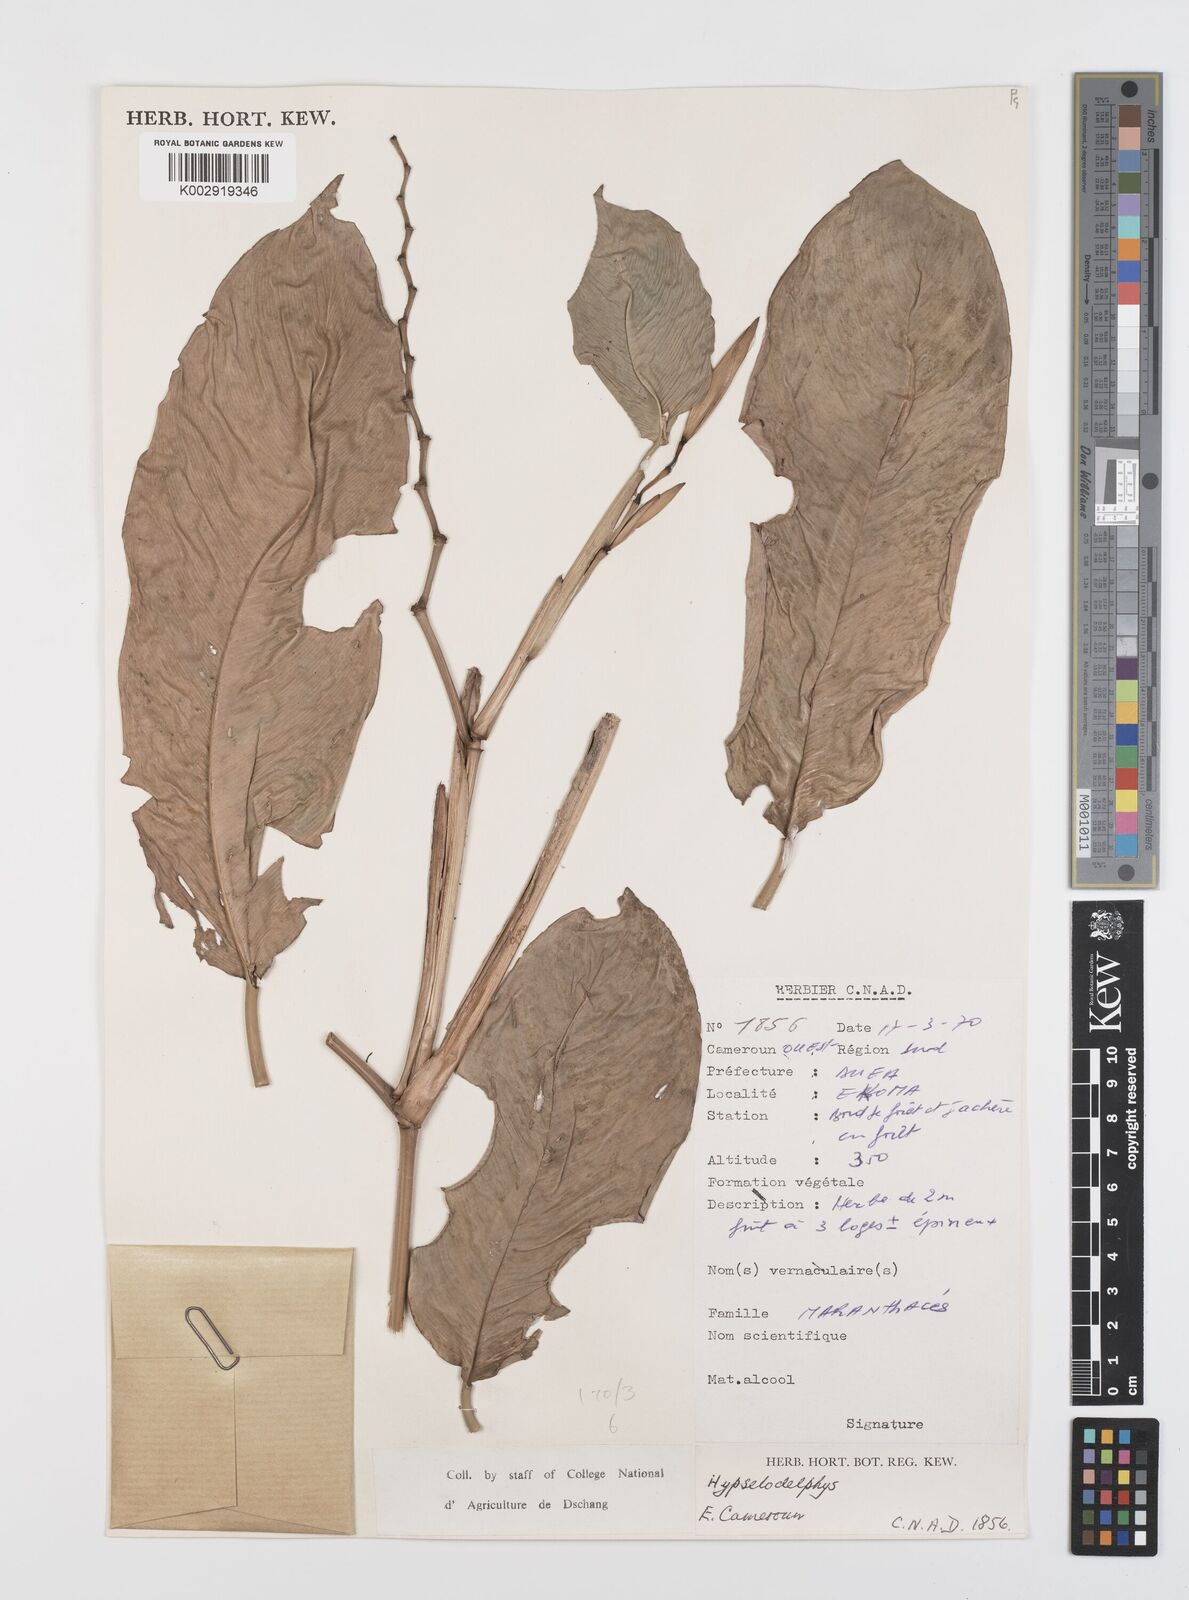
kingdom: Plantae
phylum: Tracheophyta
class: Liliopsida
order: Zingiberales
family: Marantaceae
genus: Hypselodelphys
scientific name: Hypselodelphys
